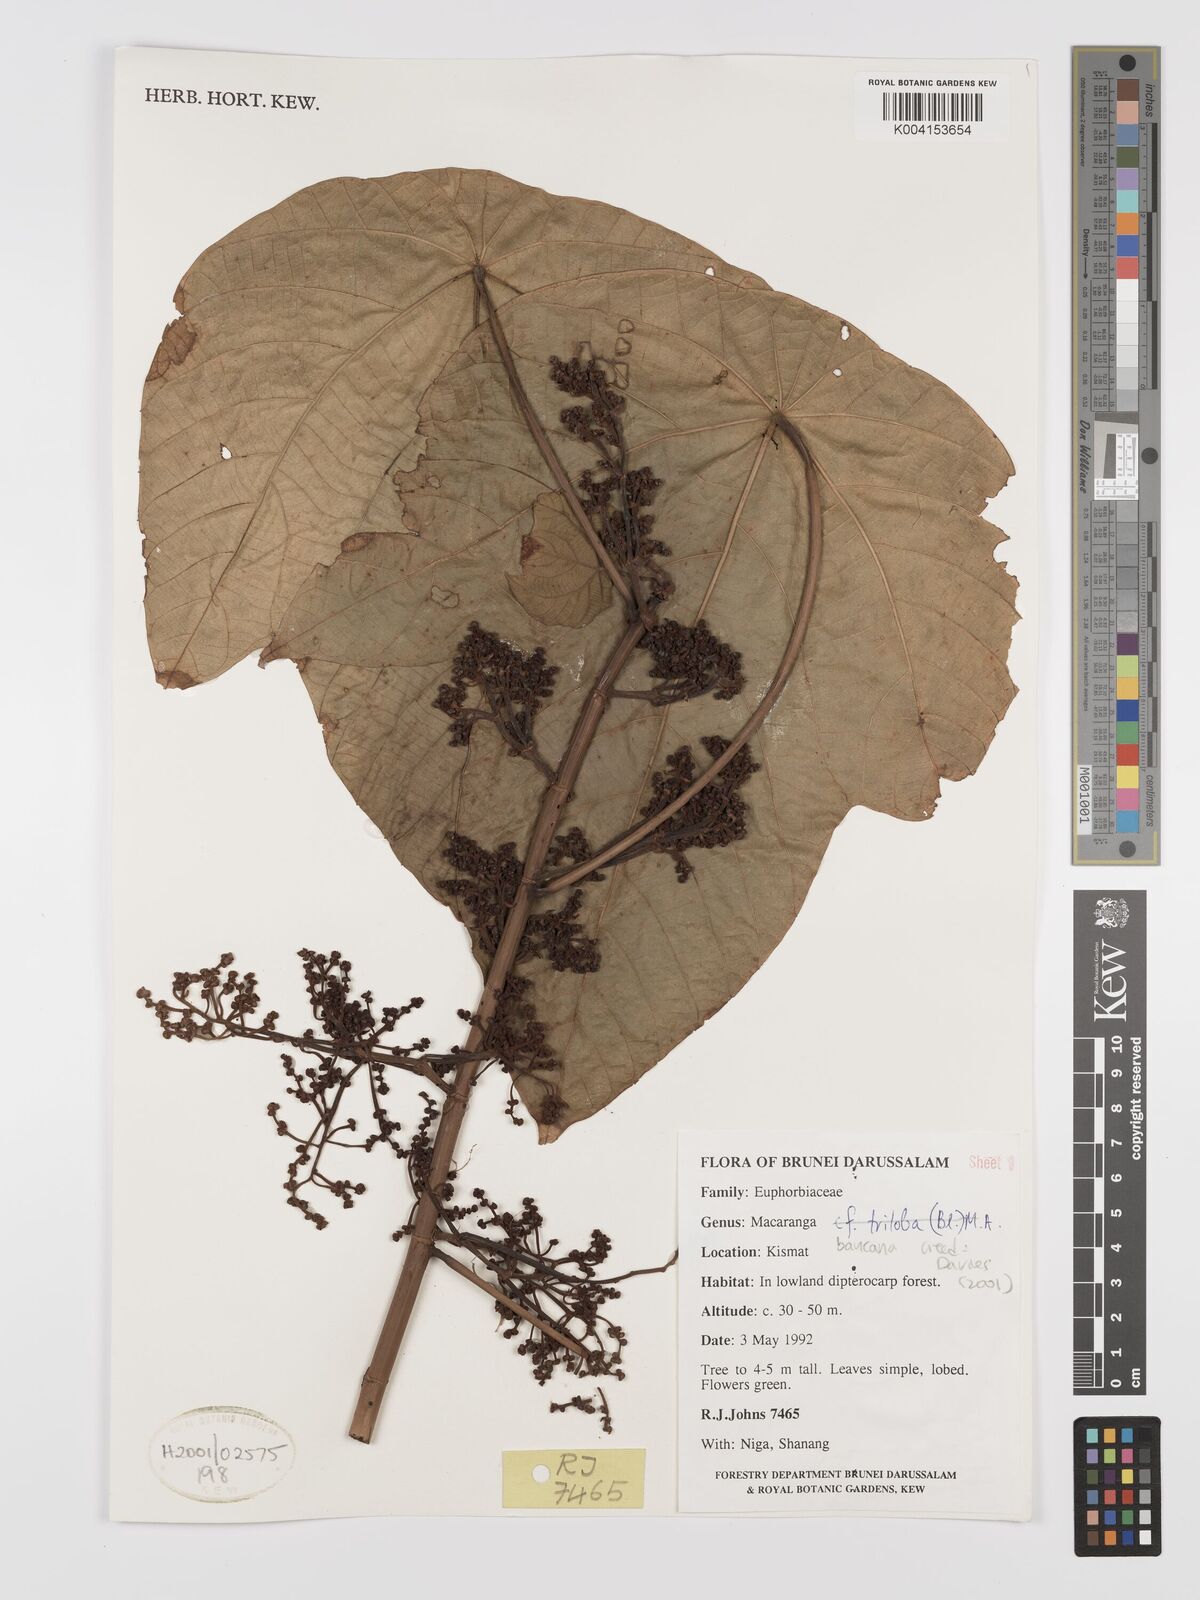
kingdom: Plantae
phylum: Tracheophyta
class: Magnoliopsida
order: Malpighiales
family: Euphorbiaceae
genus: Macaranga
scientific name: Macaranga triloba
